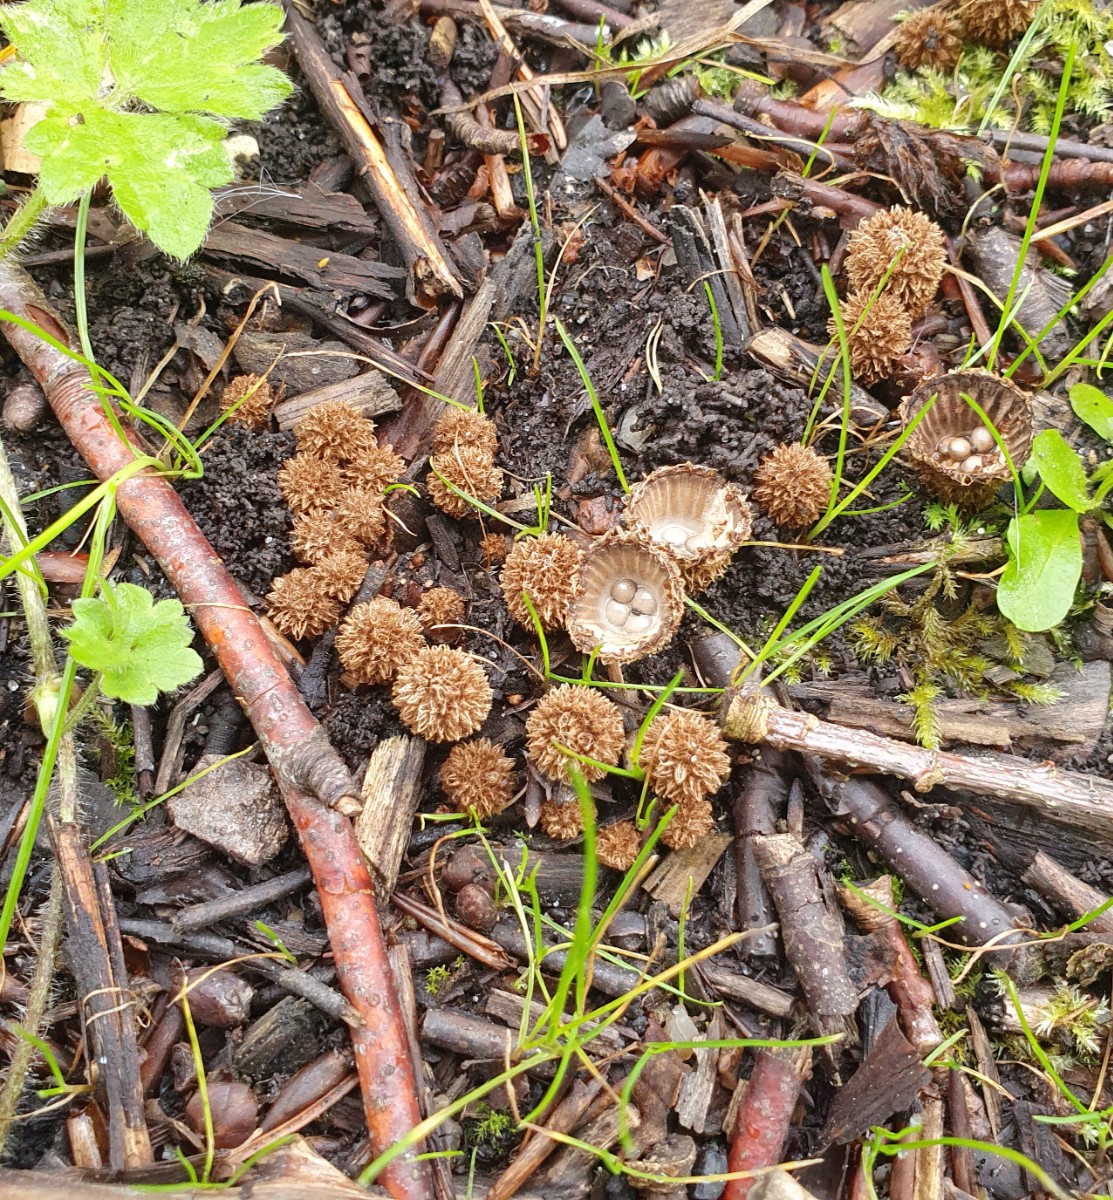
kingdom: Fungi
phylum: Basidiomycota
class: Agaricomycetes
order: Agaricales
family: Agaricaceae
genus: Cyathus
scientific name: Cyathus striatus
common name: stribet redesvamp
